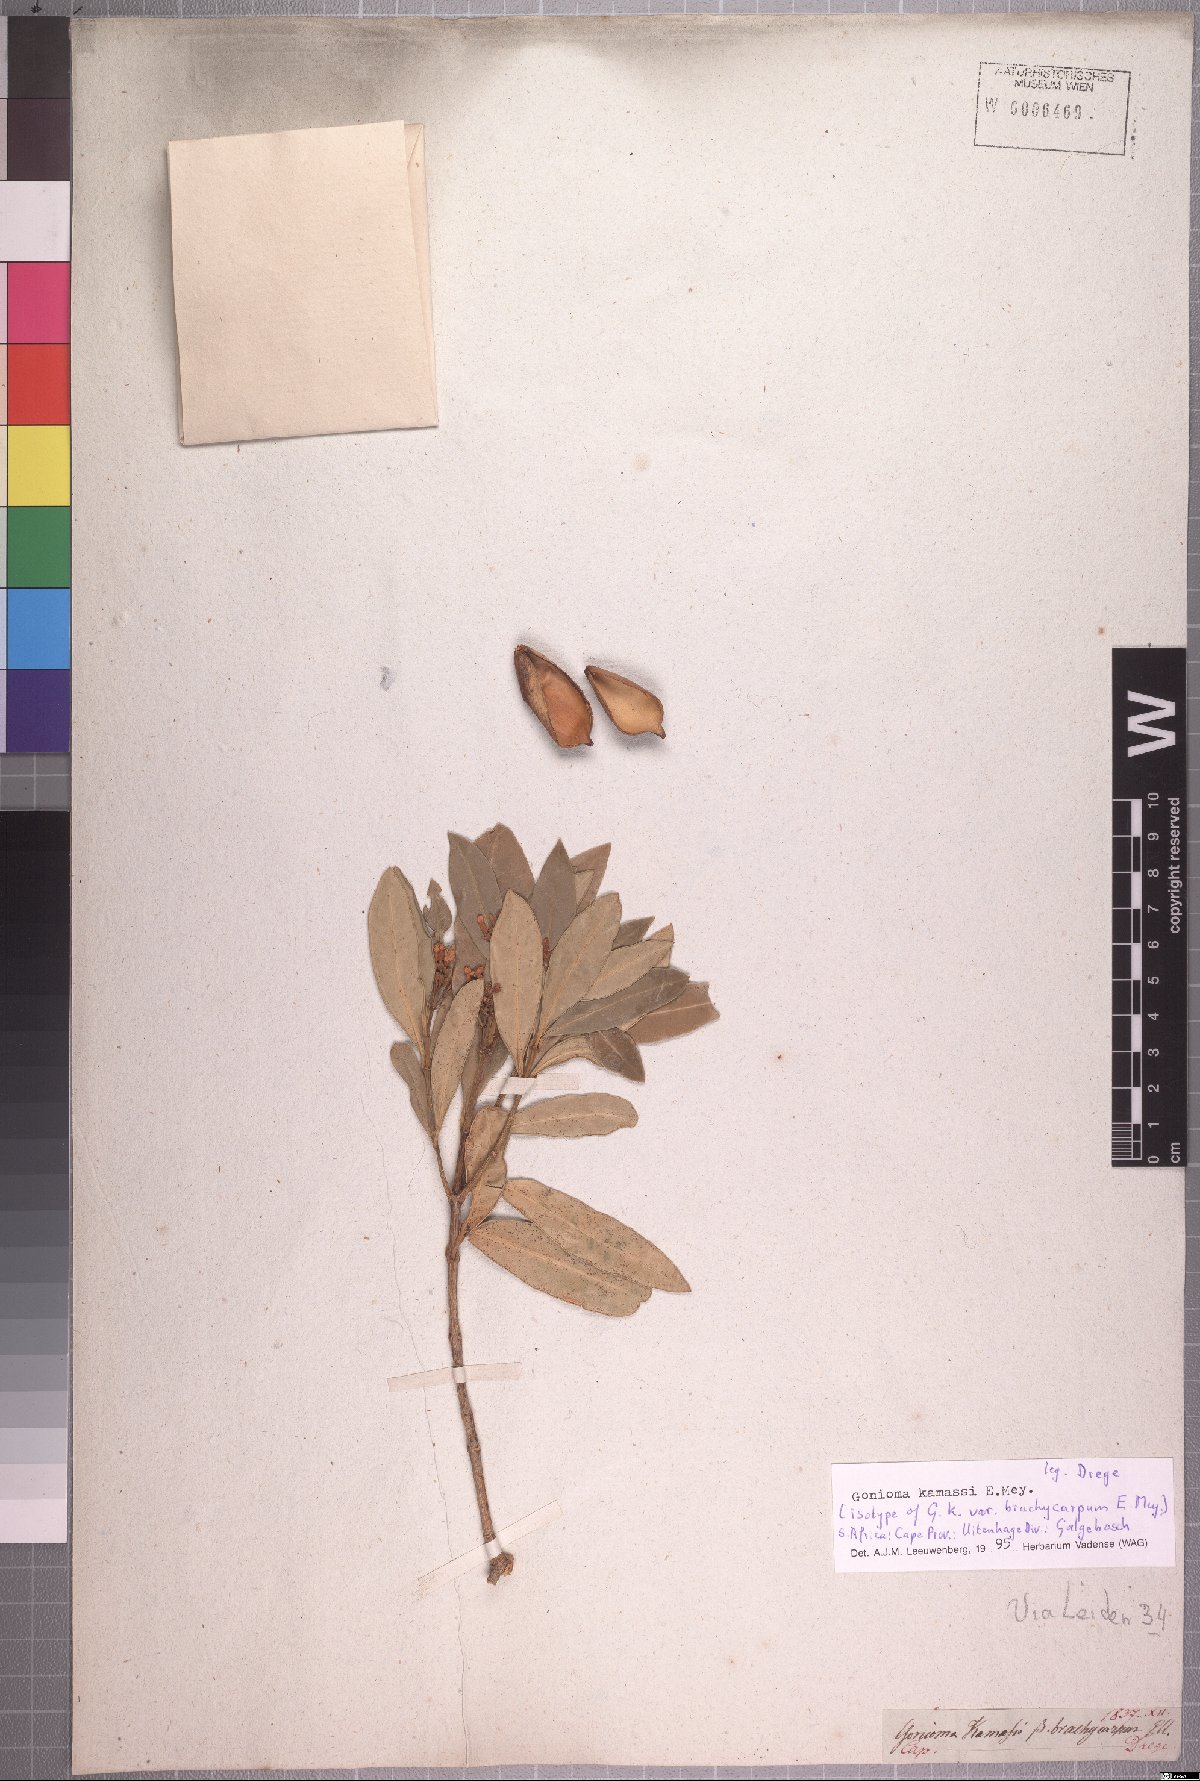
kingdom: Plantae
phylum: Tracheophyta
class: Magnoliopsida
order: Gentianales
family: Apocynaceae
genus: Gonioma
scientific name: Gonioma kamassi
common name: Kamassi
